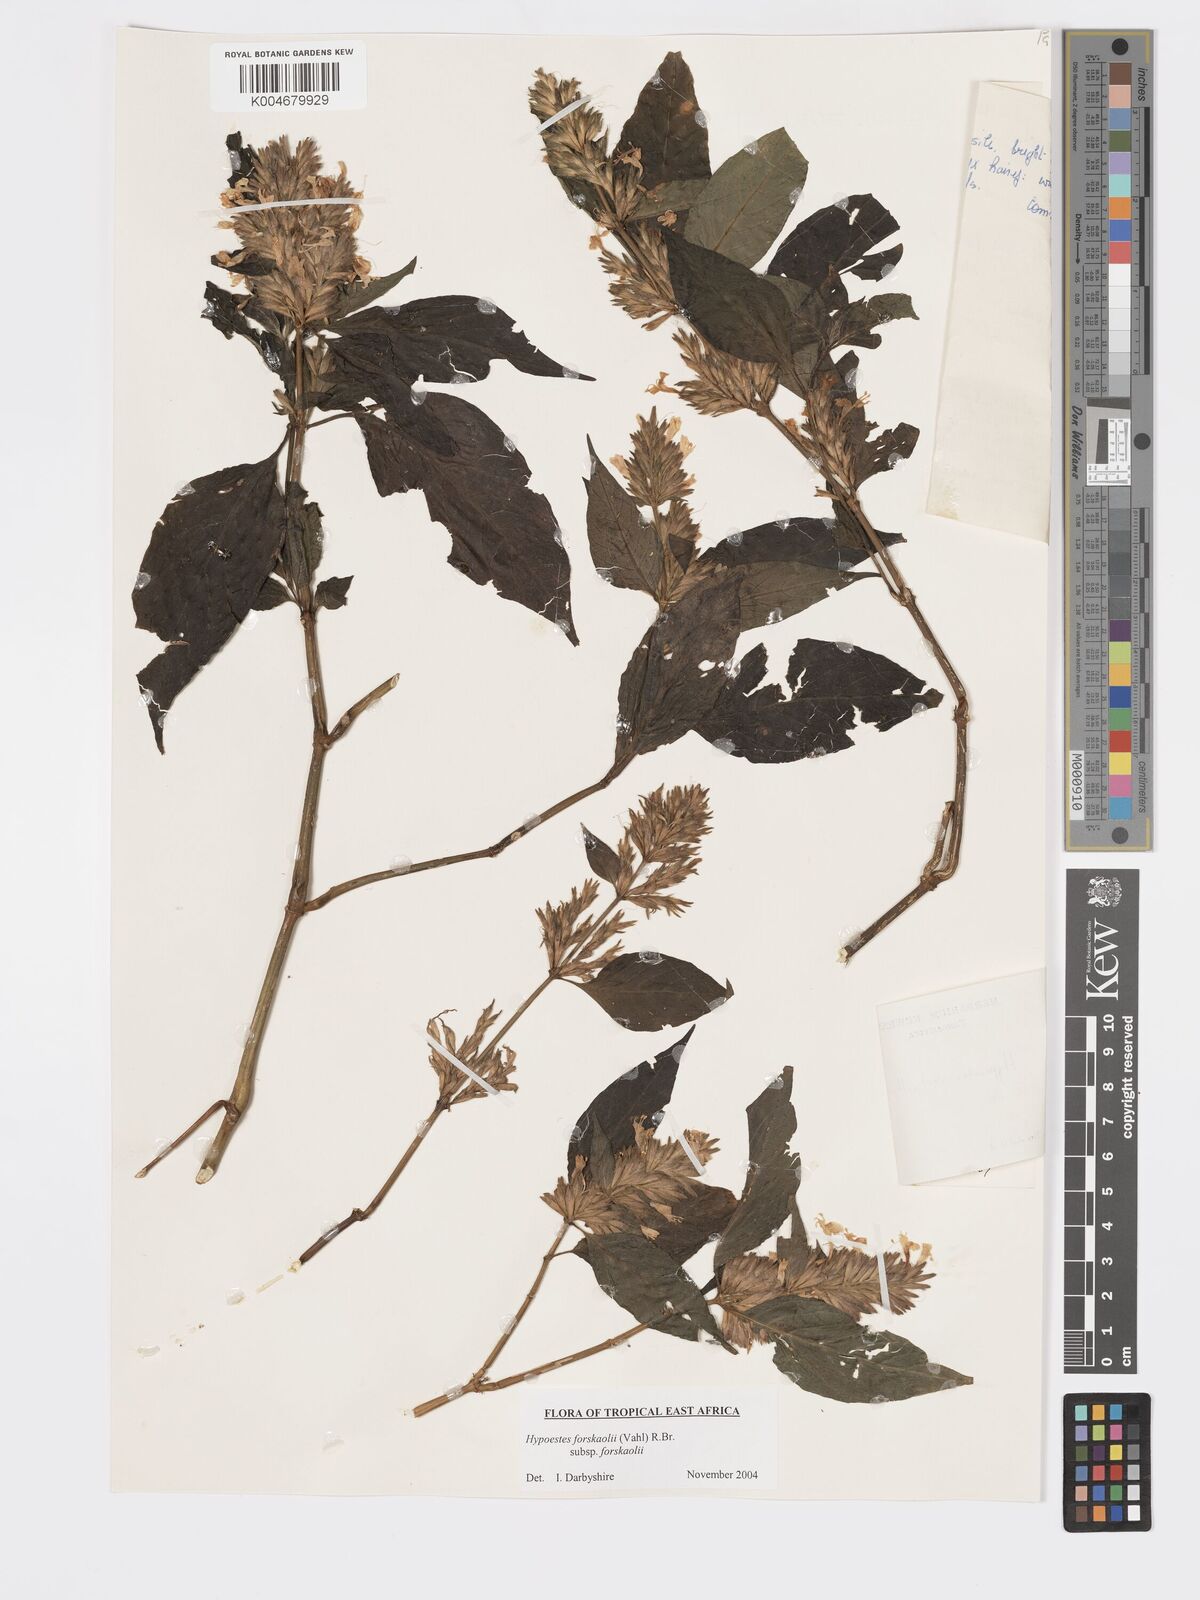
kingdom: Plantae
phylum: Tracheophyta
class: Magnoliopsida
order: Lamiales
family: Acanthaceae
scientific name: Acanthaceae
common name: Acanthaceae
